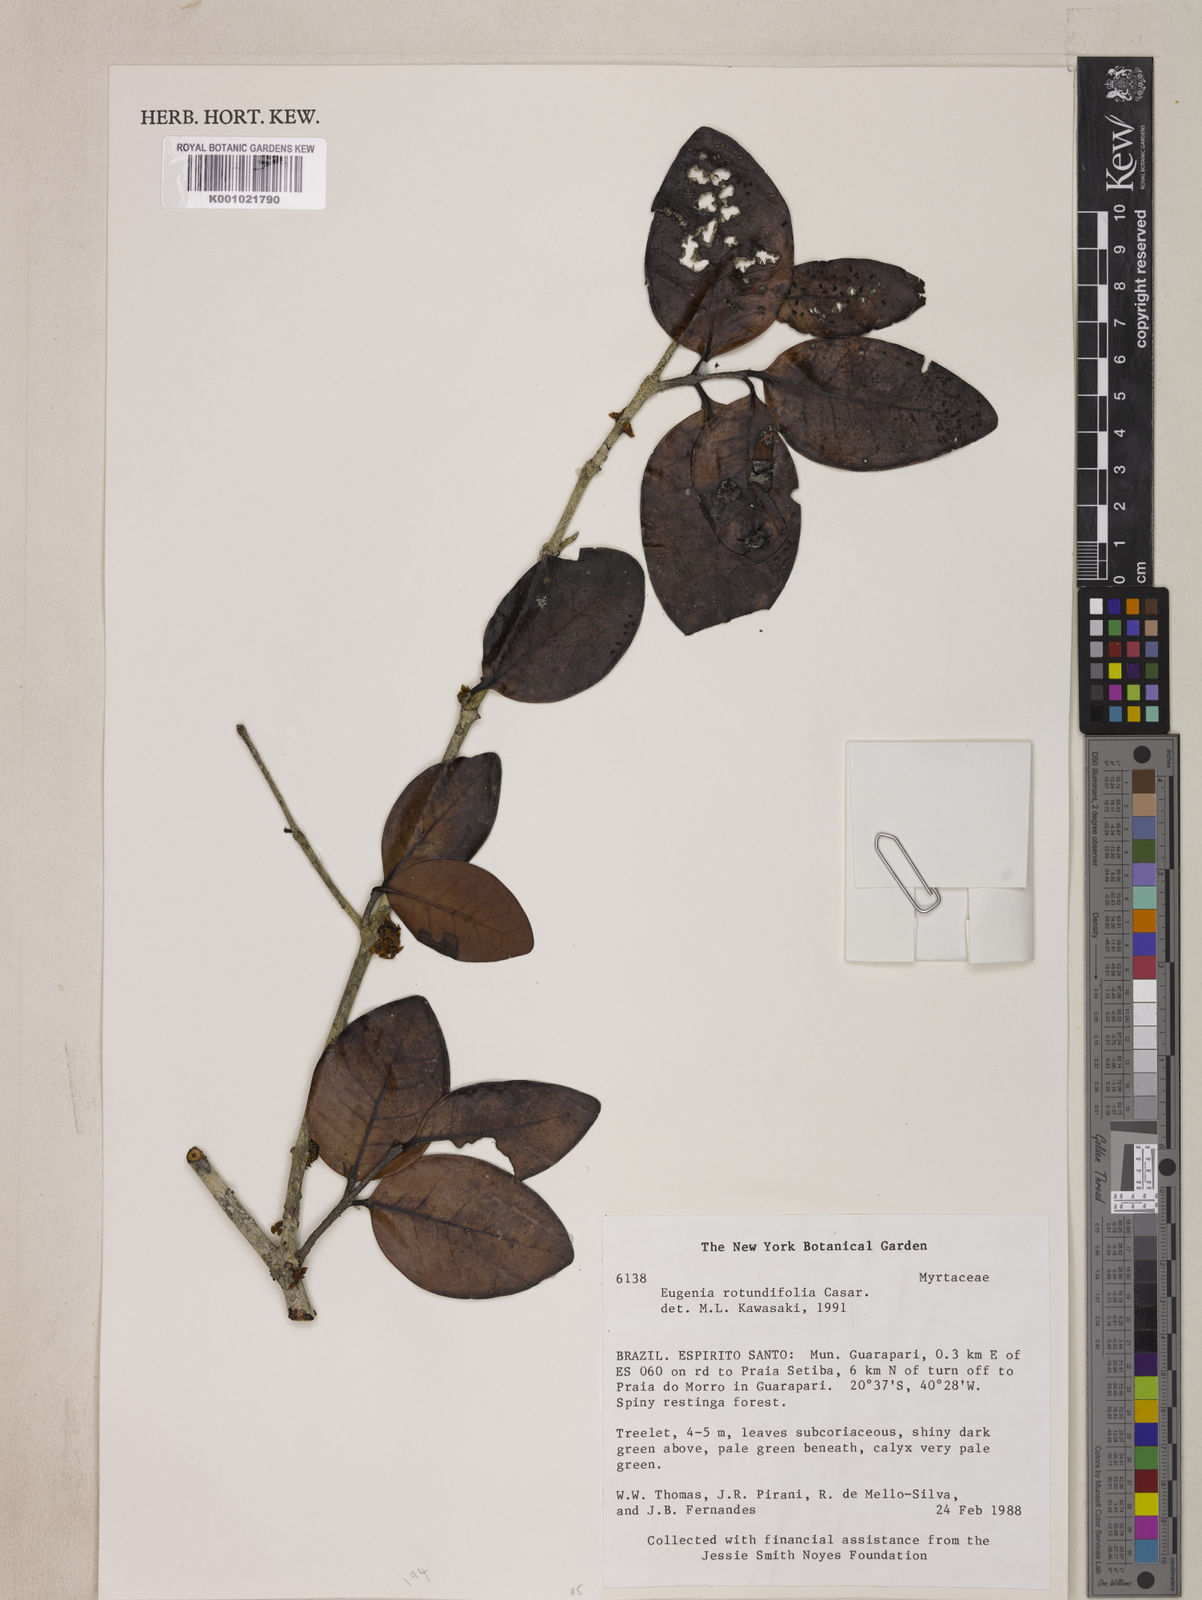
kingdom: Plantae
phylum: Tracheophyta
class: Magnoliopsida
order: Myrtales
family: Myrtaceae
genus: Eugenia
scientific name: Eugenia casarettoana
